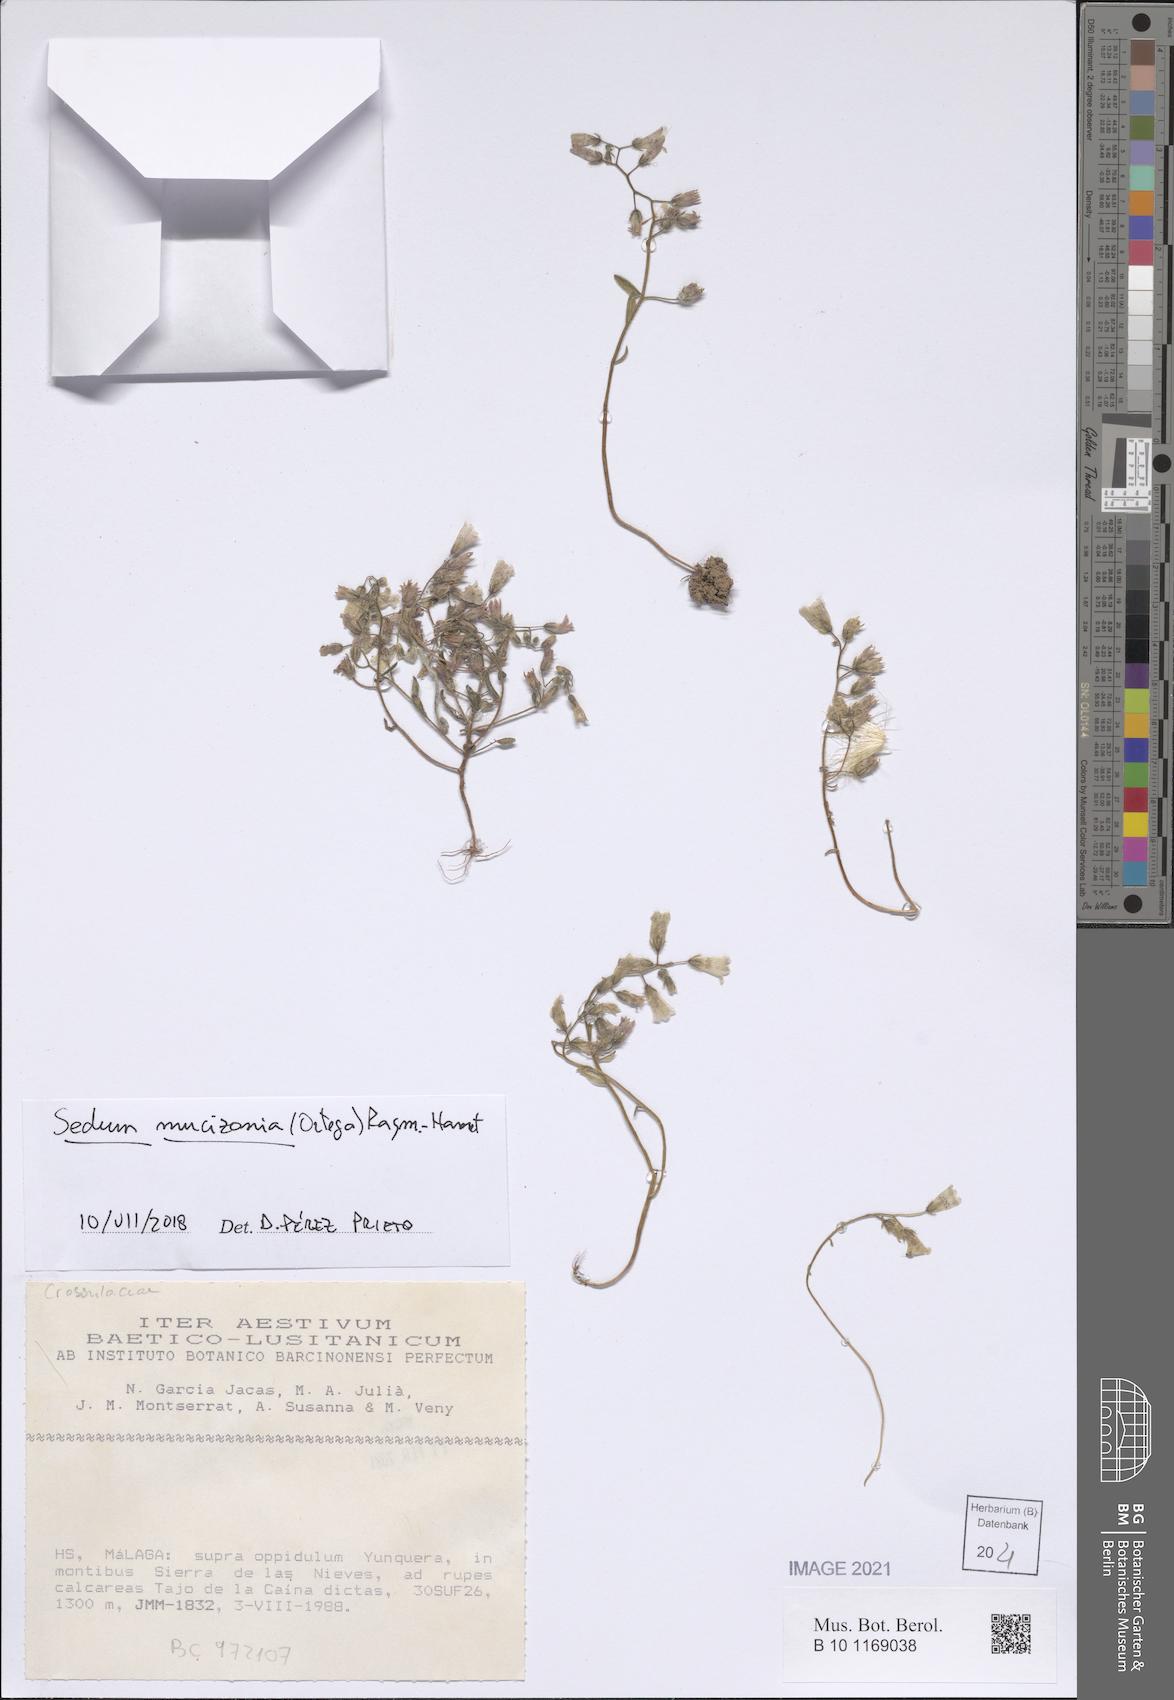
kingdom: Plantae
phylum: Tracheophyta
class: Magnoliopsida
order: Saxifragales
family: Crassulaceae
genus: Sedum
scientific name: Sedum mucizonia
